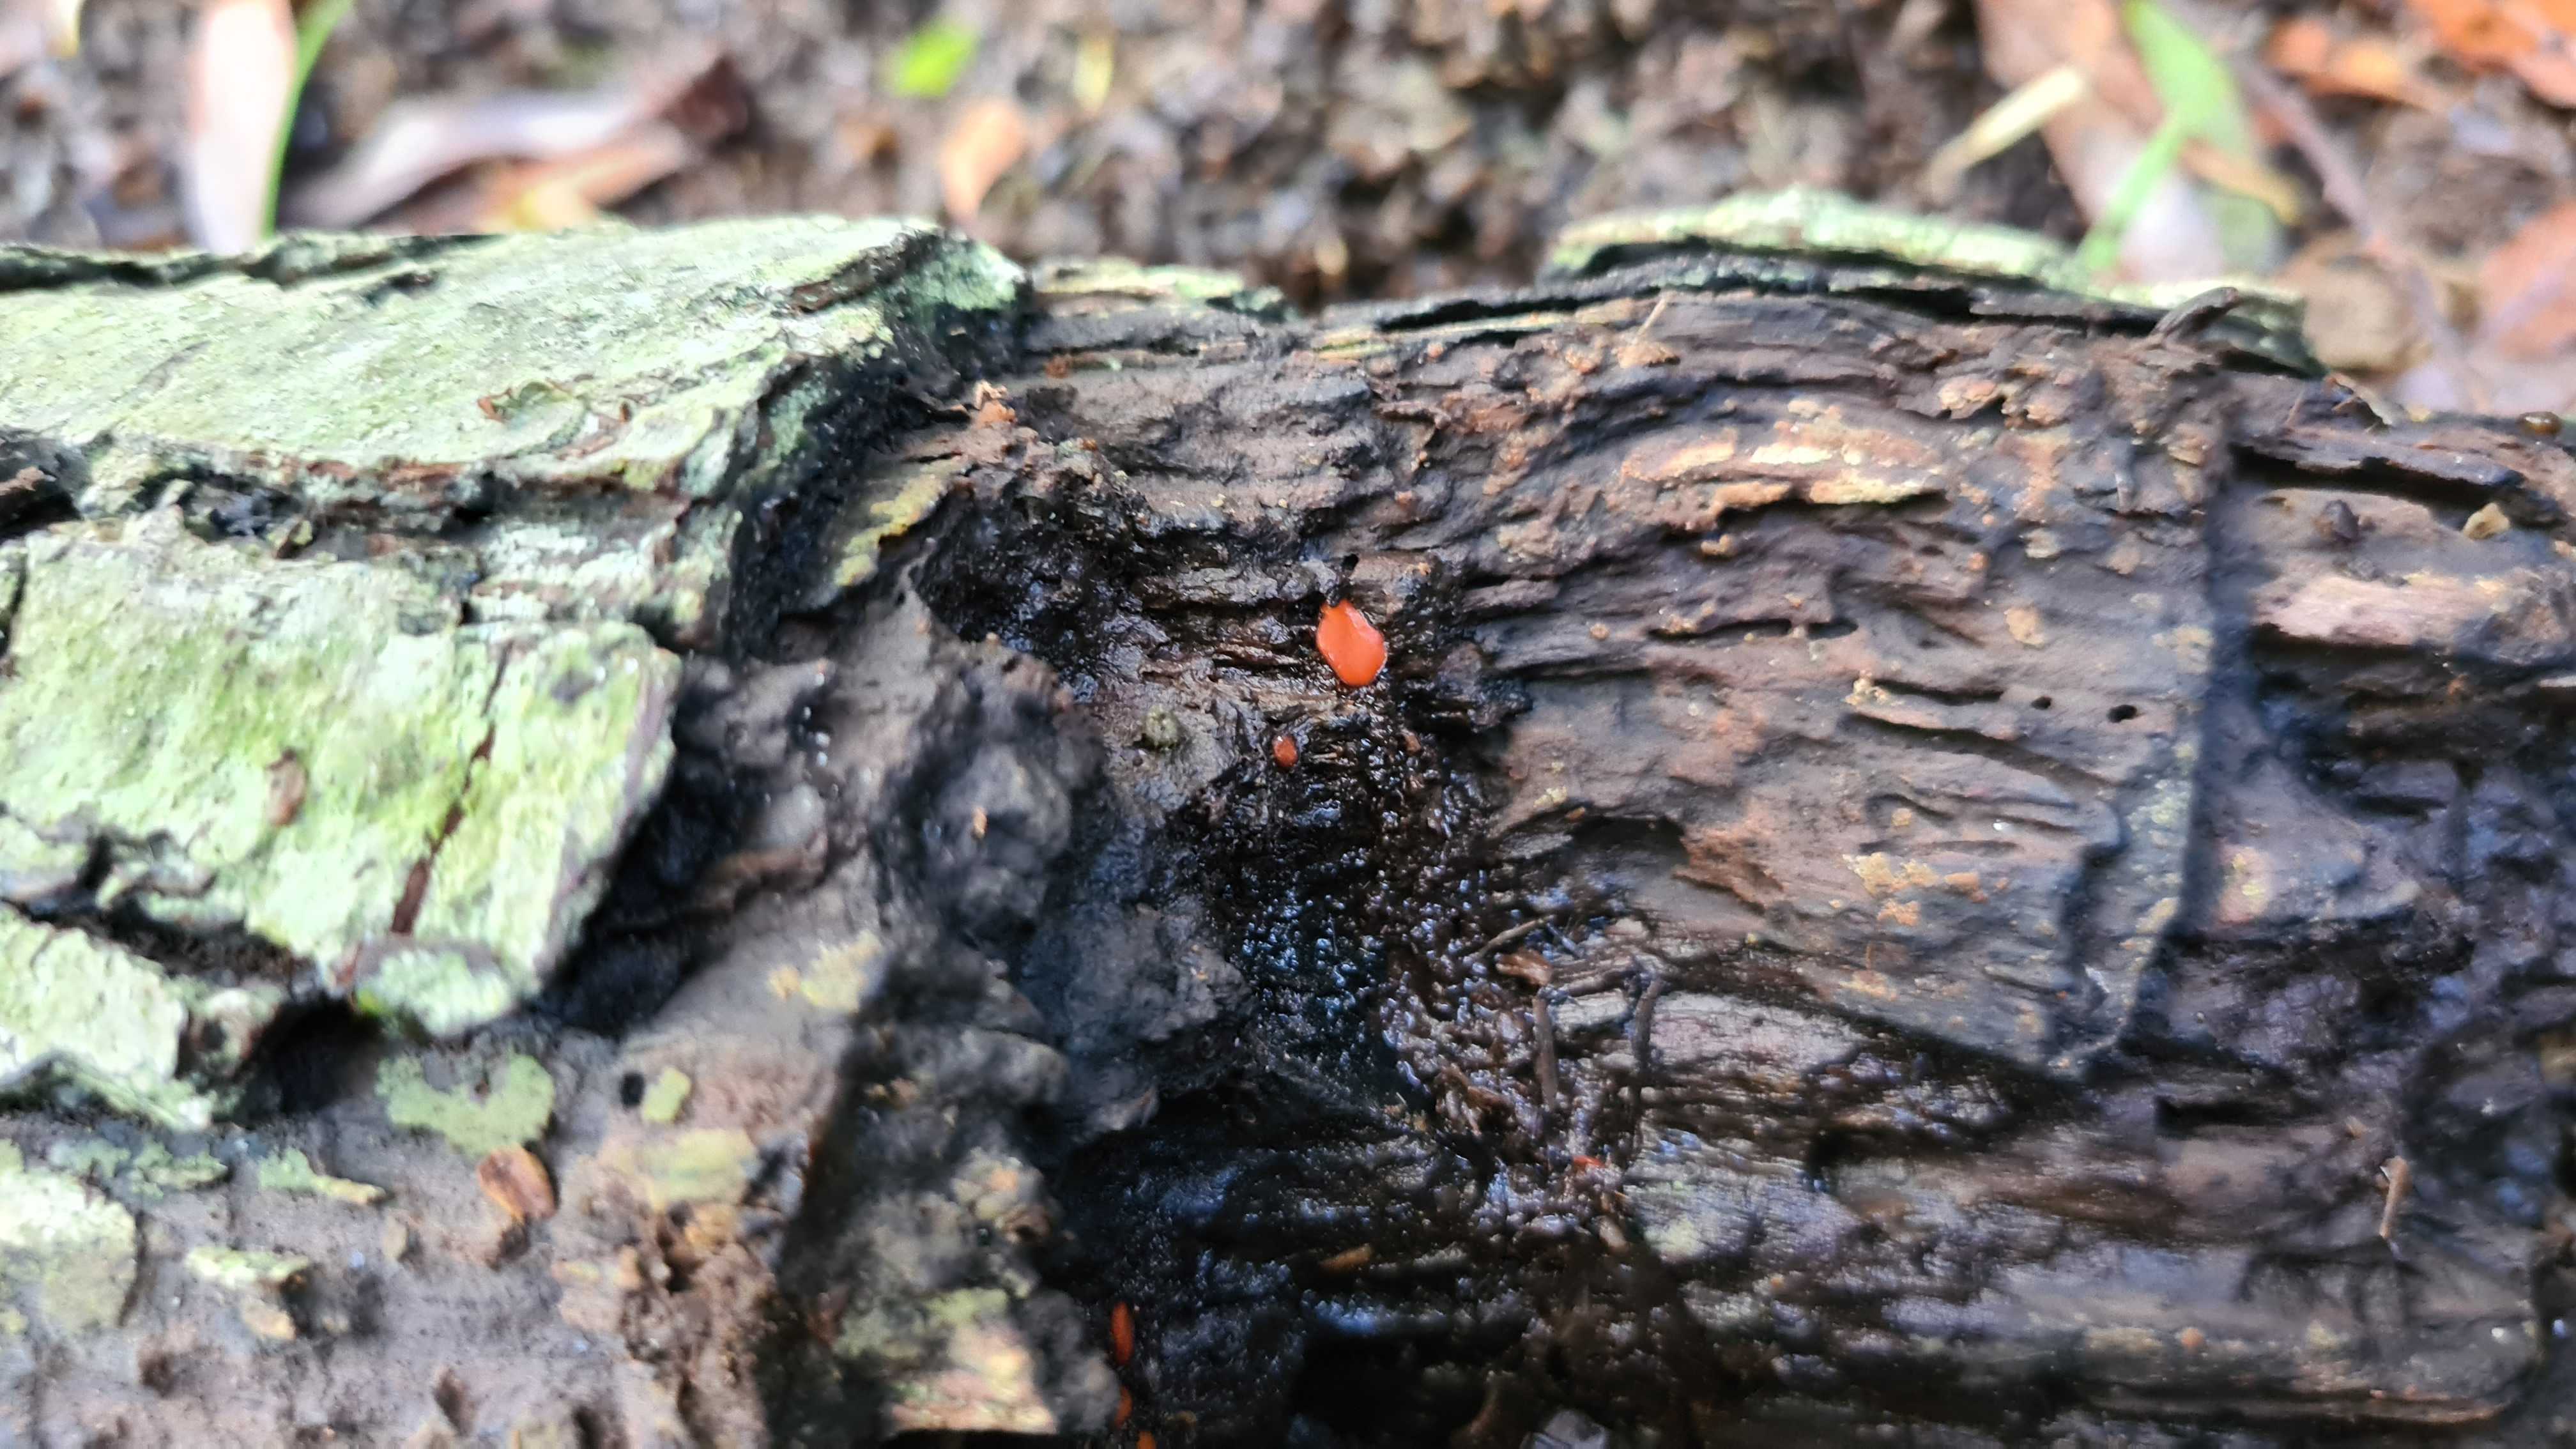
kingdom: Fungi
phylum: Ascomycota
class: Pezizomycetes
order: Pezizales
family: Pyronemataceae
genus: Scutellinia
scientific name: Scutellinia
